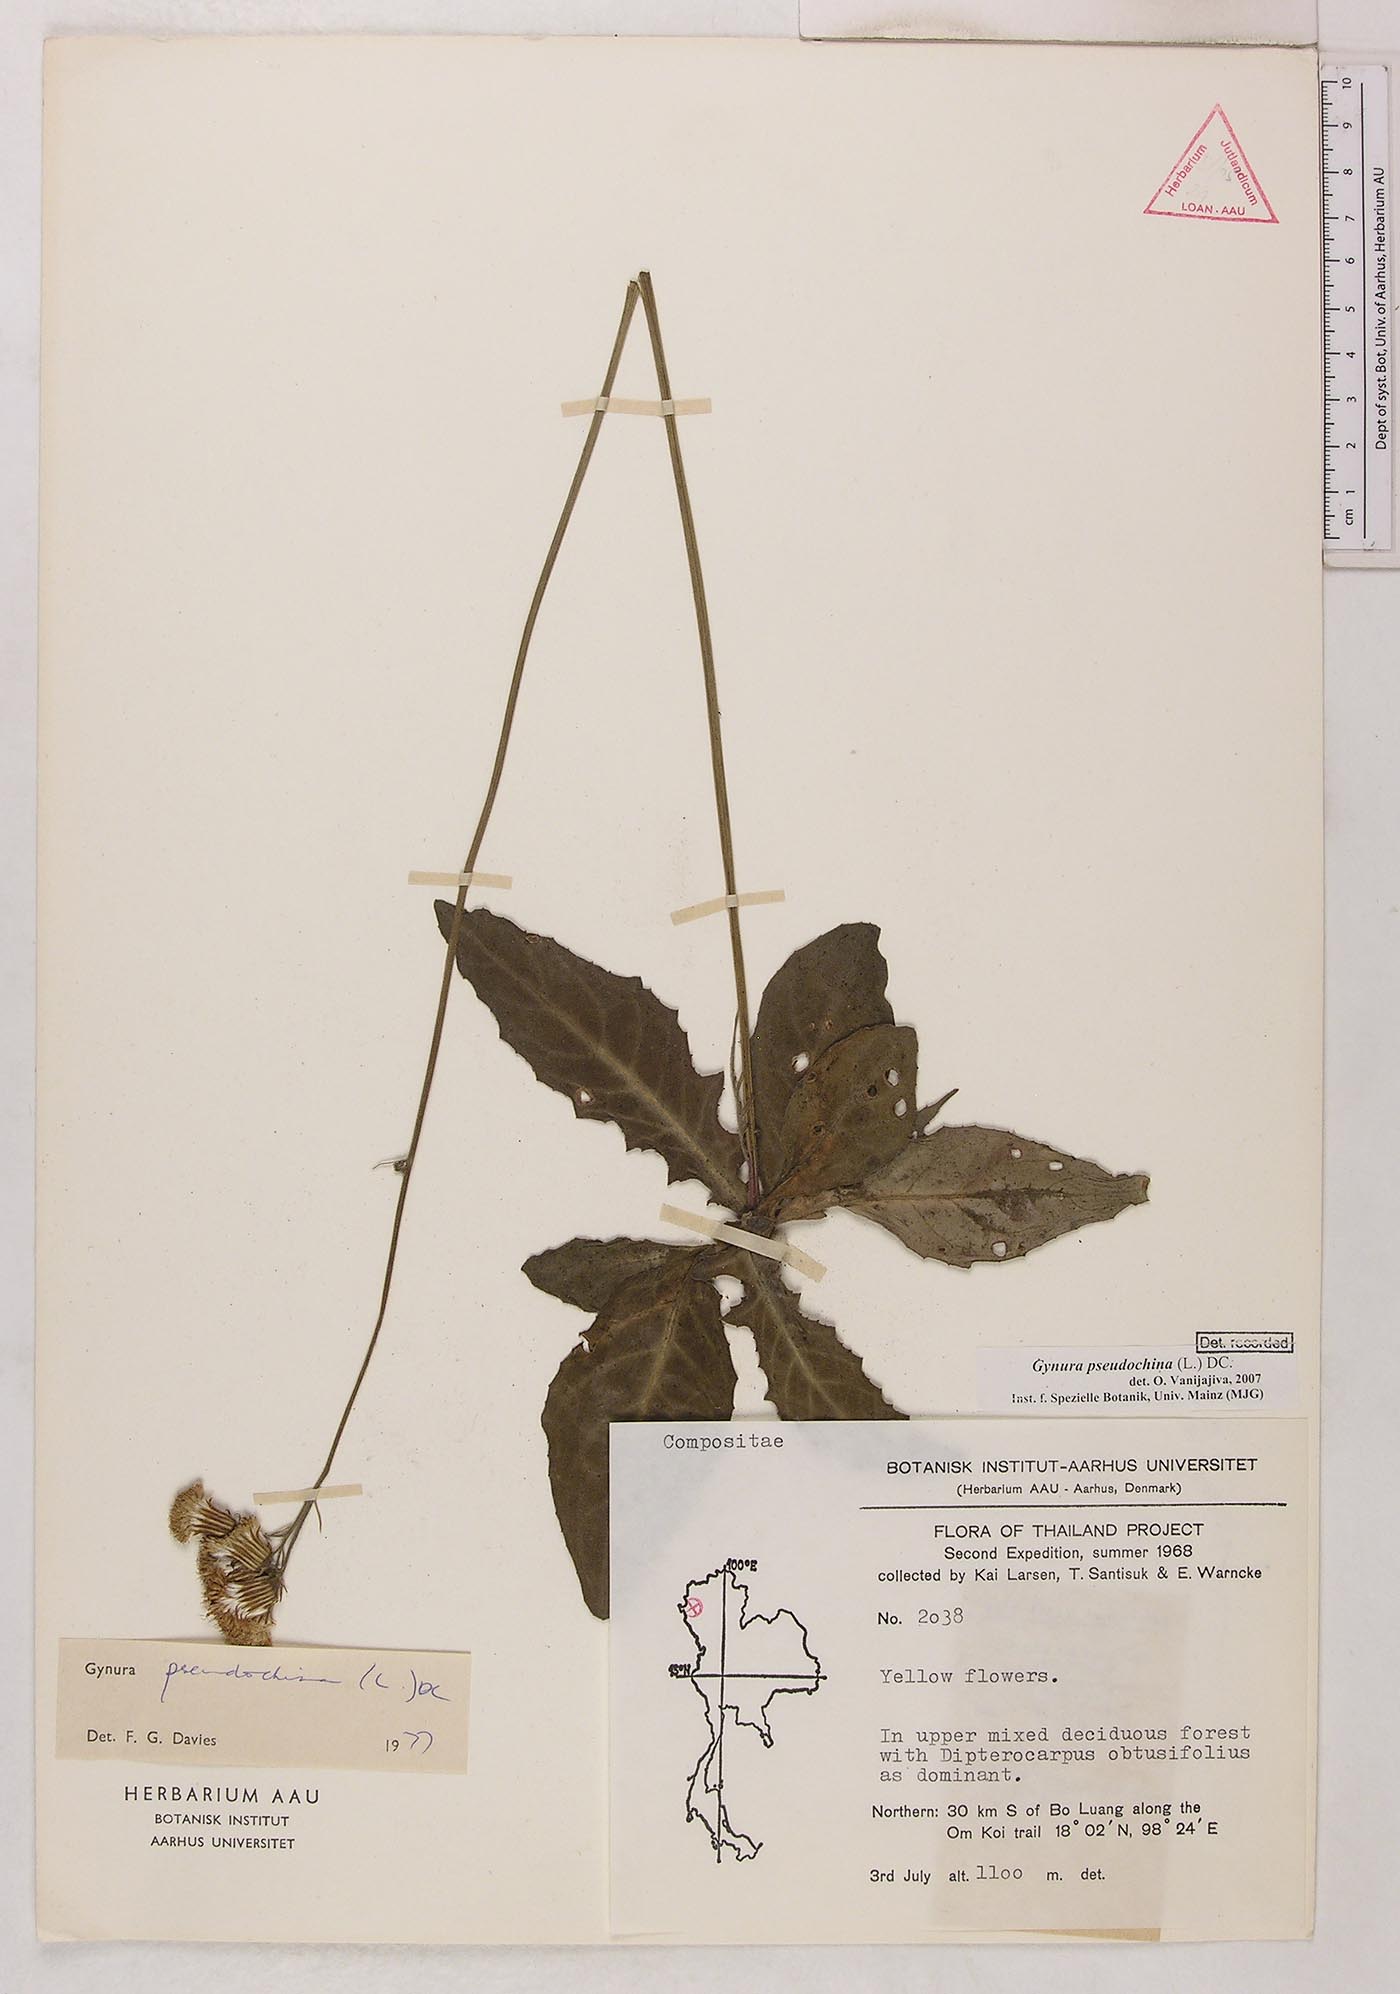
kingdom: Plantae
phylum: Tracheophyta
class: Magnoliopsida
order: Asterales
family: Asteraceae
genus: Gynura
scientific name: Gynura pseudochina
